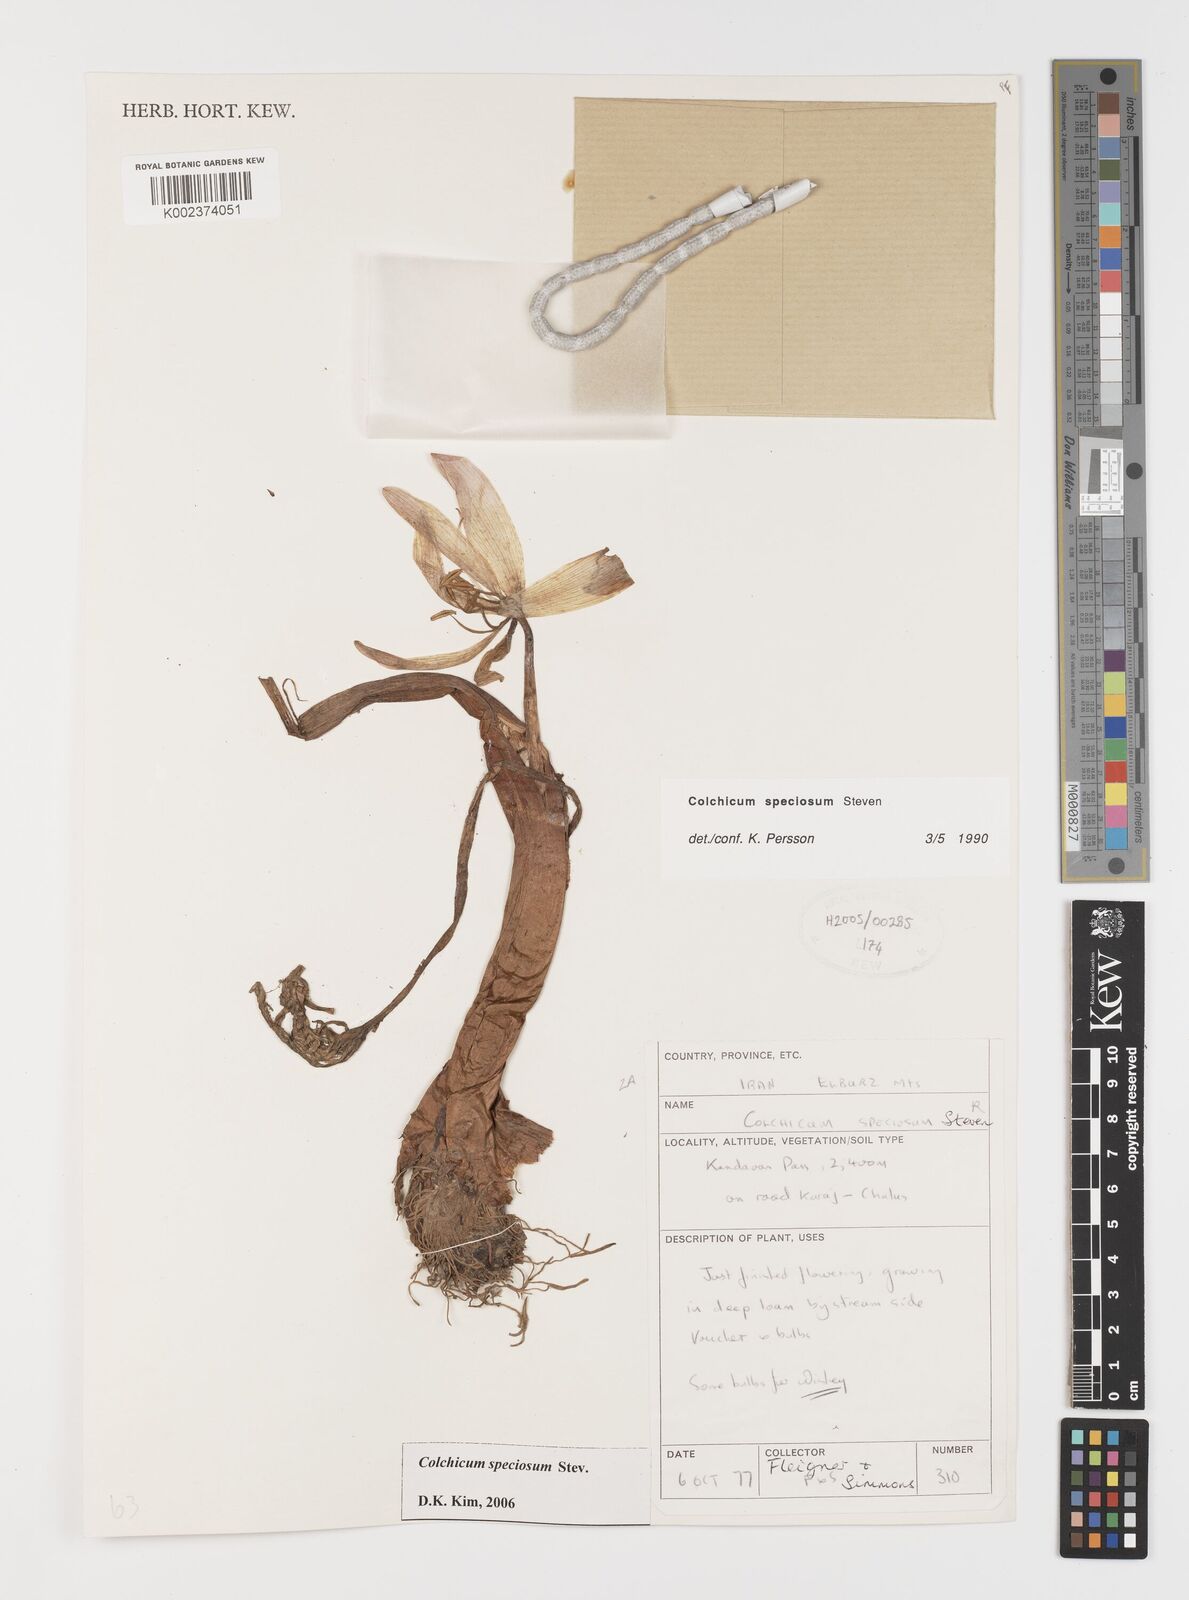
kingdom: Plantae
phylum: Tracheophyta
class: Liliopsida
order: Liliales
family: Colchicaceae
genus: Colchicum
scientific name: Colchicum speciosum
